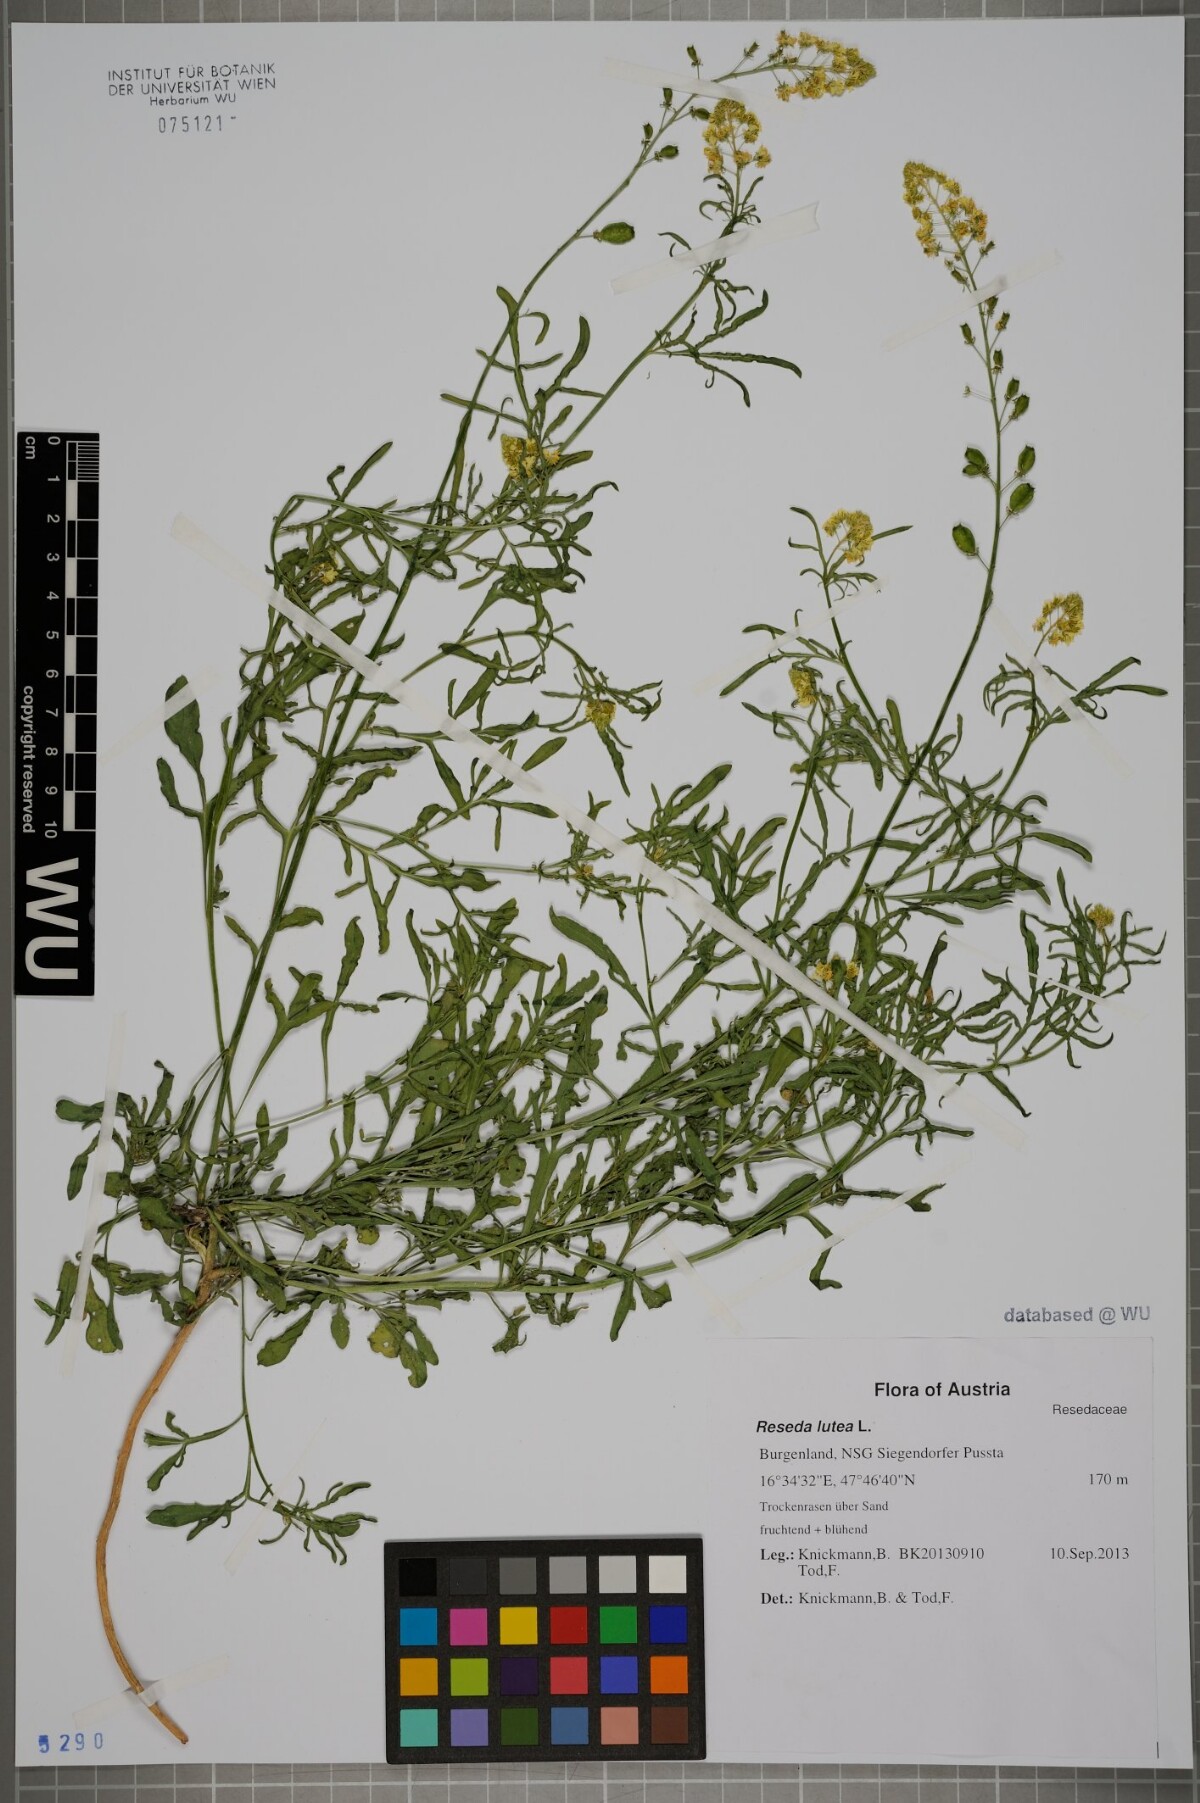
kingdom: Plantae
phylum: Tracheophyta
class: Magnoliopsida
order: Brassicales
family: Resedaceae
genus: Reseda
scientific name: Reseda lutea
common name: Wild mignonette
